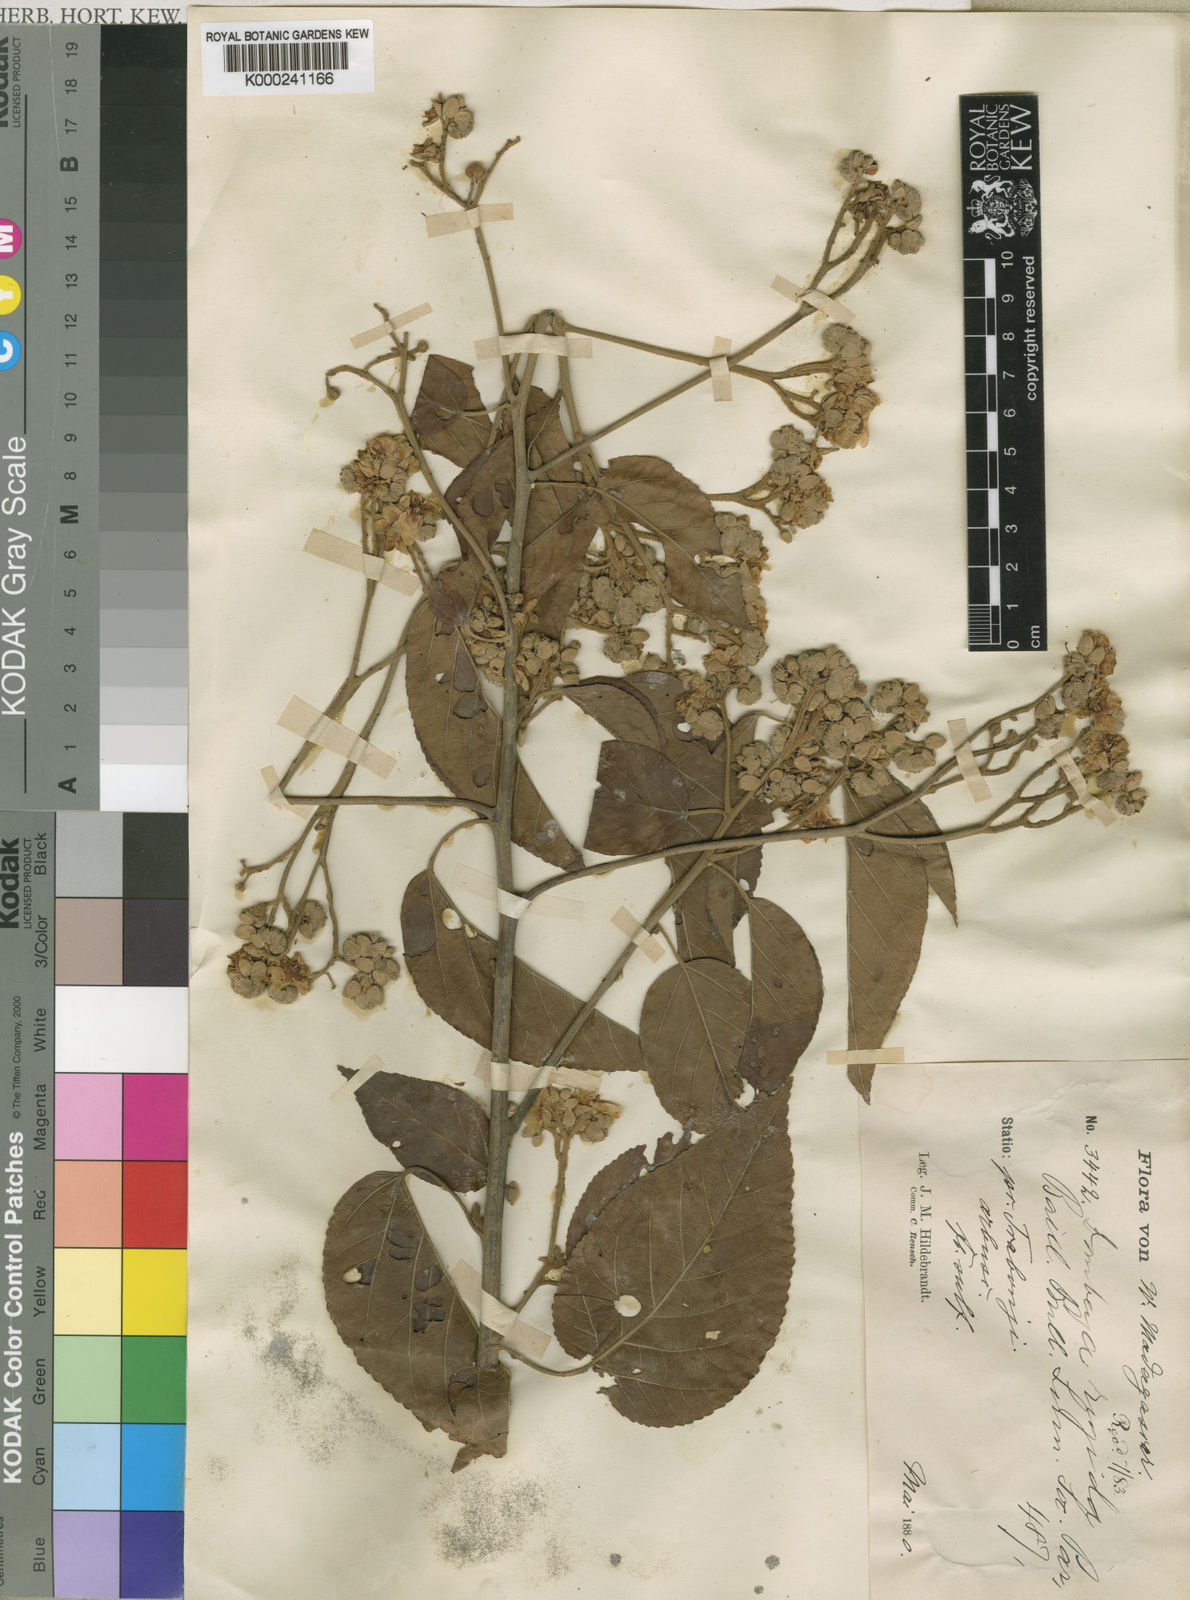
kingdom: Plantae
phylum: Tracheophyta
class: Magnoliopsida
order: Malvales
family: Malvaceae
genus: Eriolaena
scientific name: Eriolaena rigida
